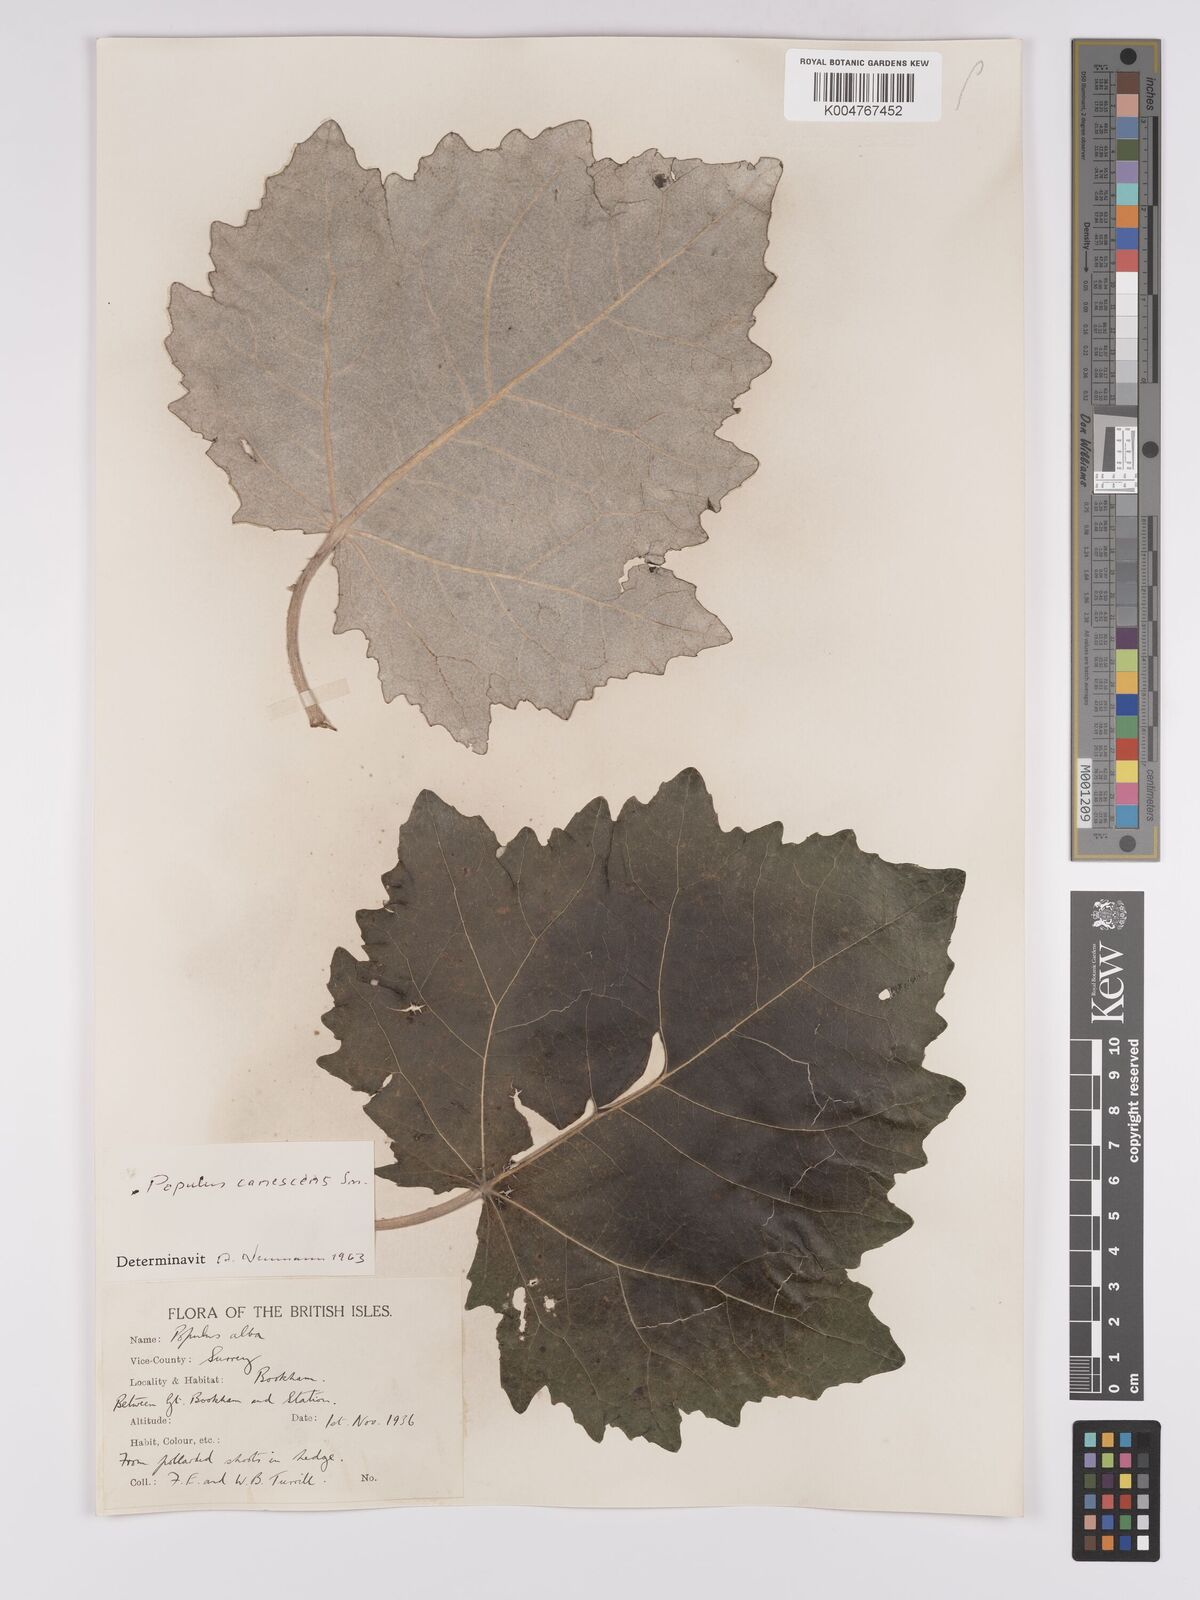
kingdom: Plantae
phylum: Tracheophyta
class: Magnoliopsida
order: Malpighiales
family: Salicaceae
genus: Populus
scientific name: Populus canescens
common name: Gray poplar
